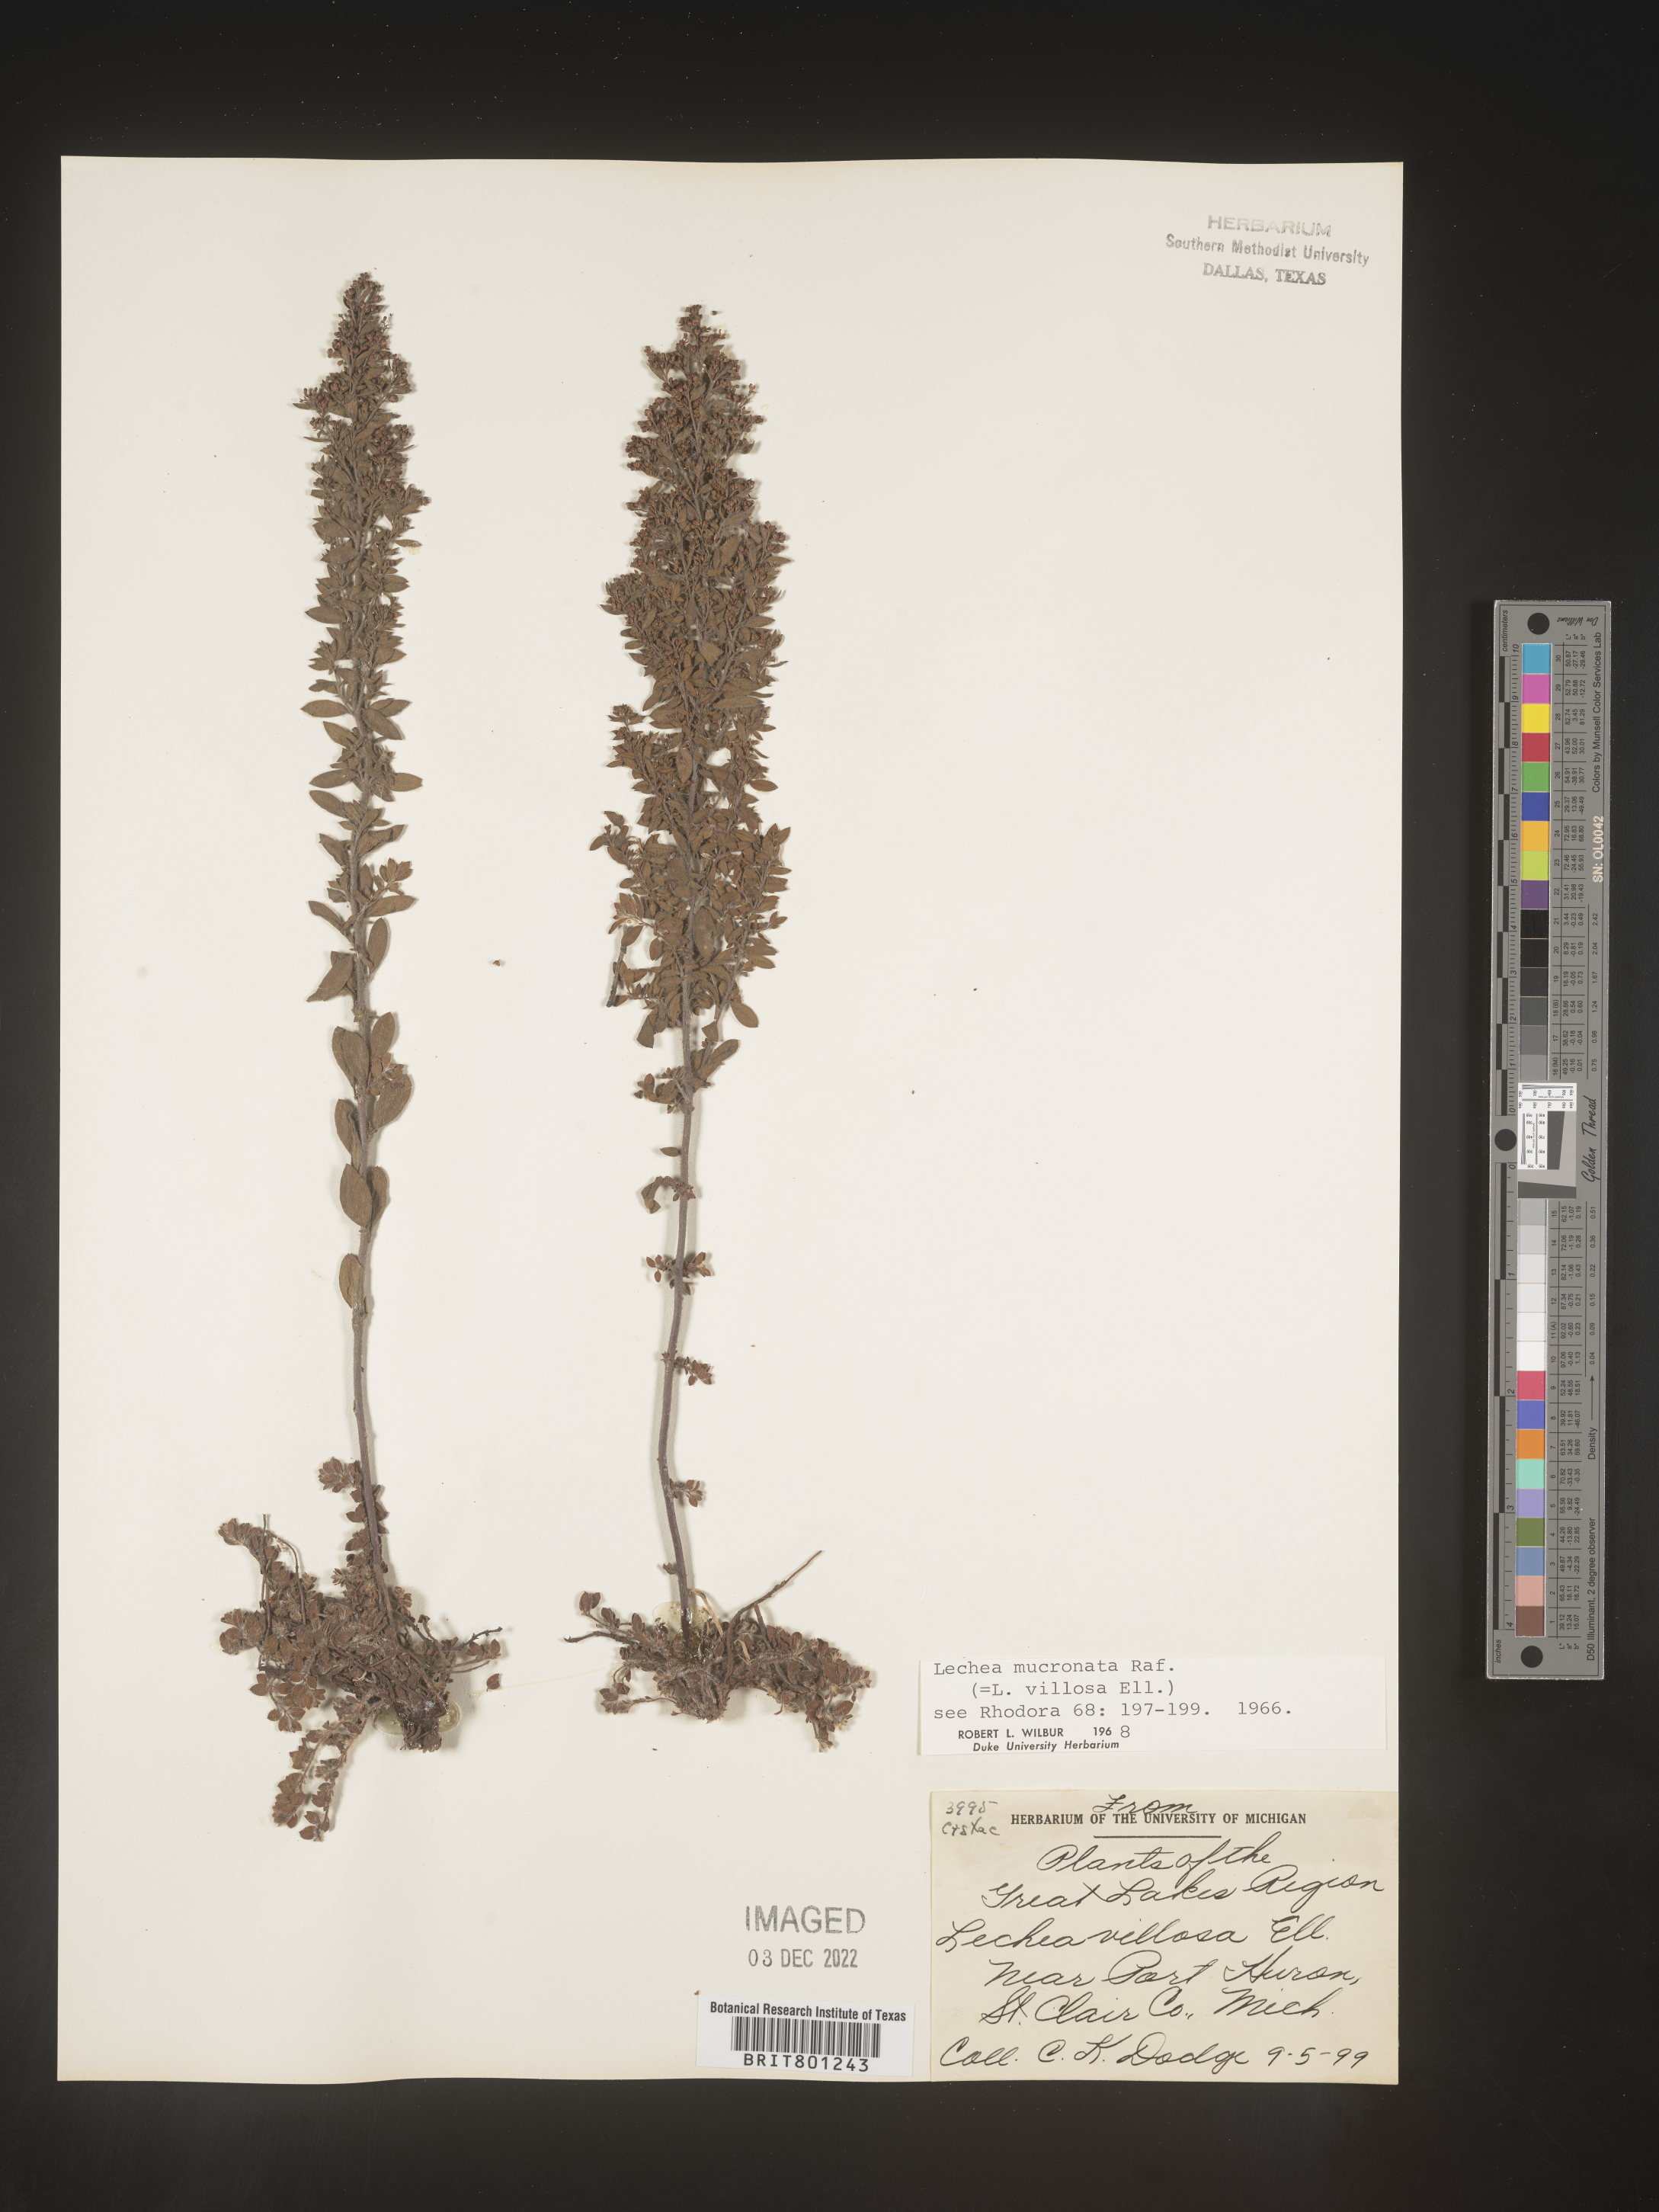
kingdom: Plantae
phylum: Tracheophyta
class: Magnoliopsida
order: Malvales
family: Cistaceae
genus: Lechea
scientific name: Lechea mucronata
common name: Hairy pinweed
